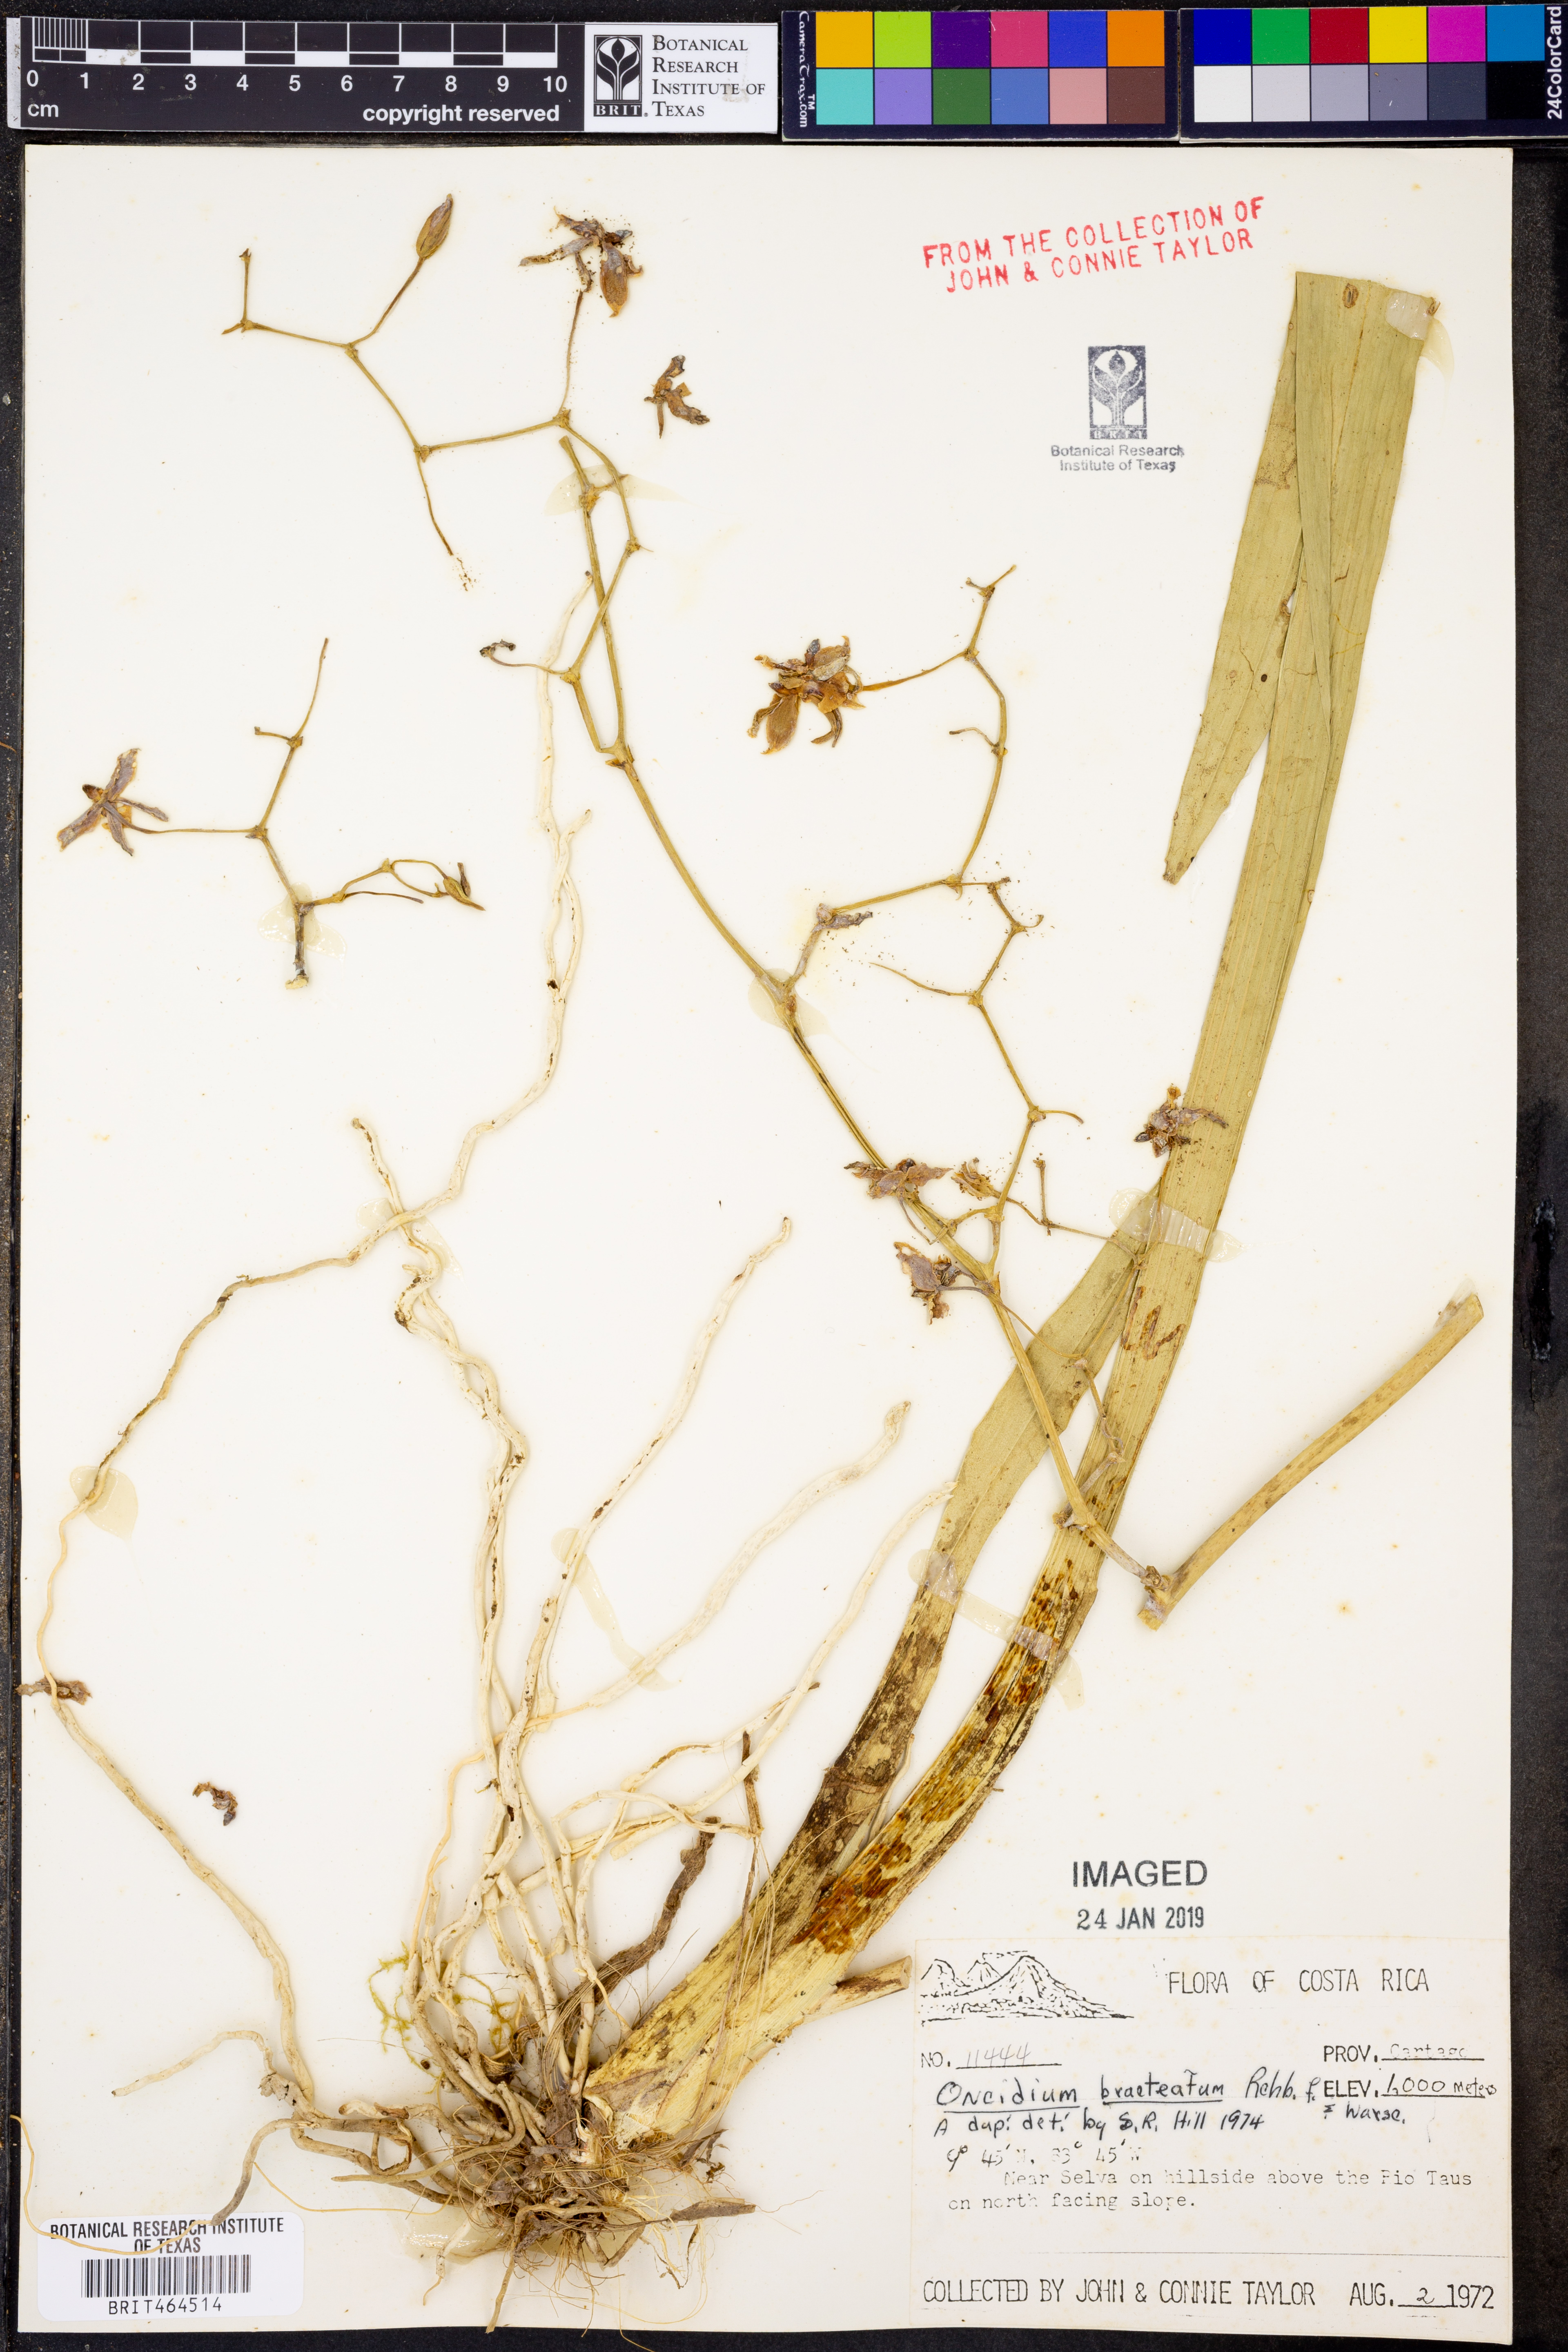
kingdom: Plantae
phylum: Tracheophyta
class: Liliopsida
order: Asparagales
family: Orchidaceae
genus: Oncidium
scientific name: Oncidium bracteatum
